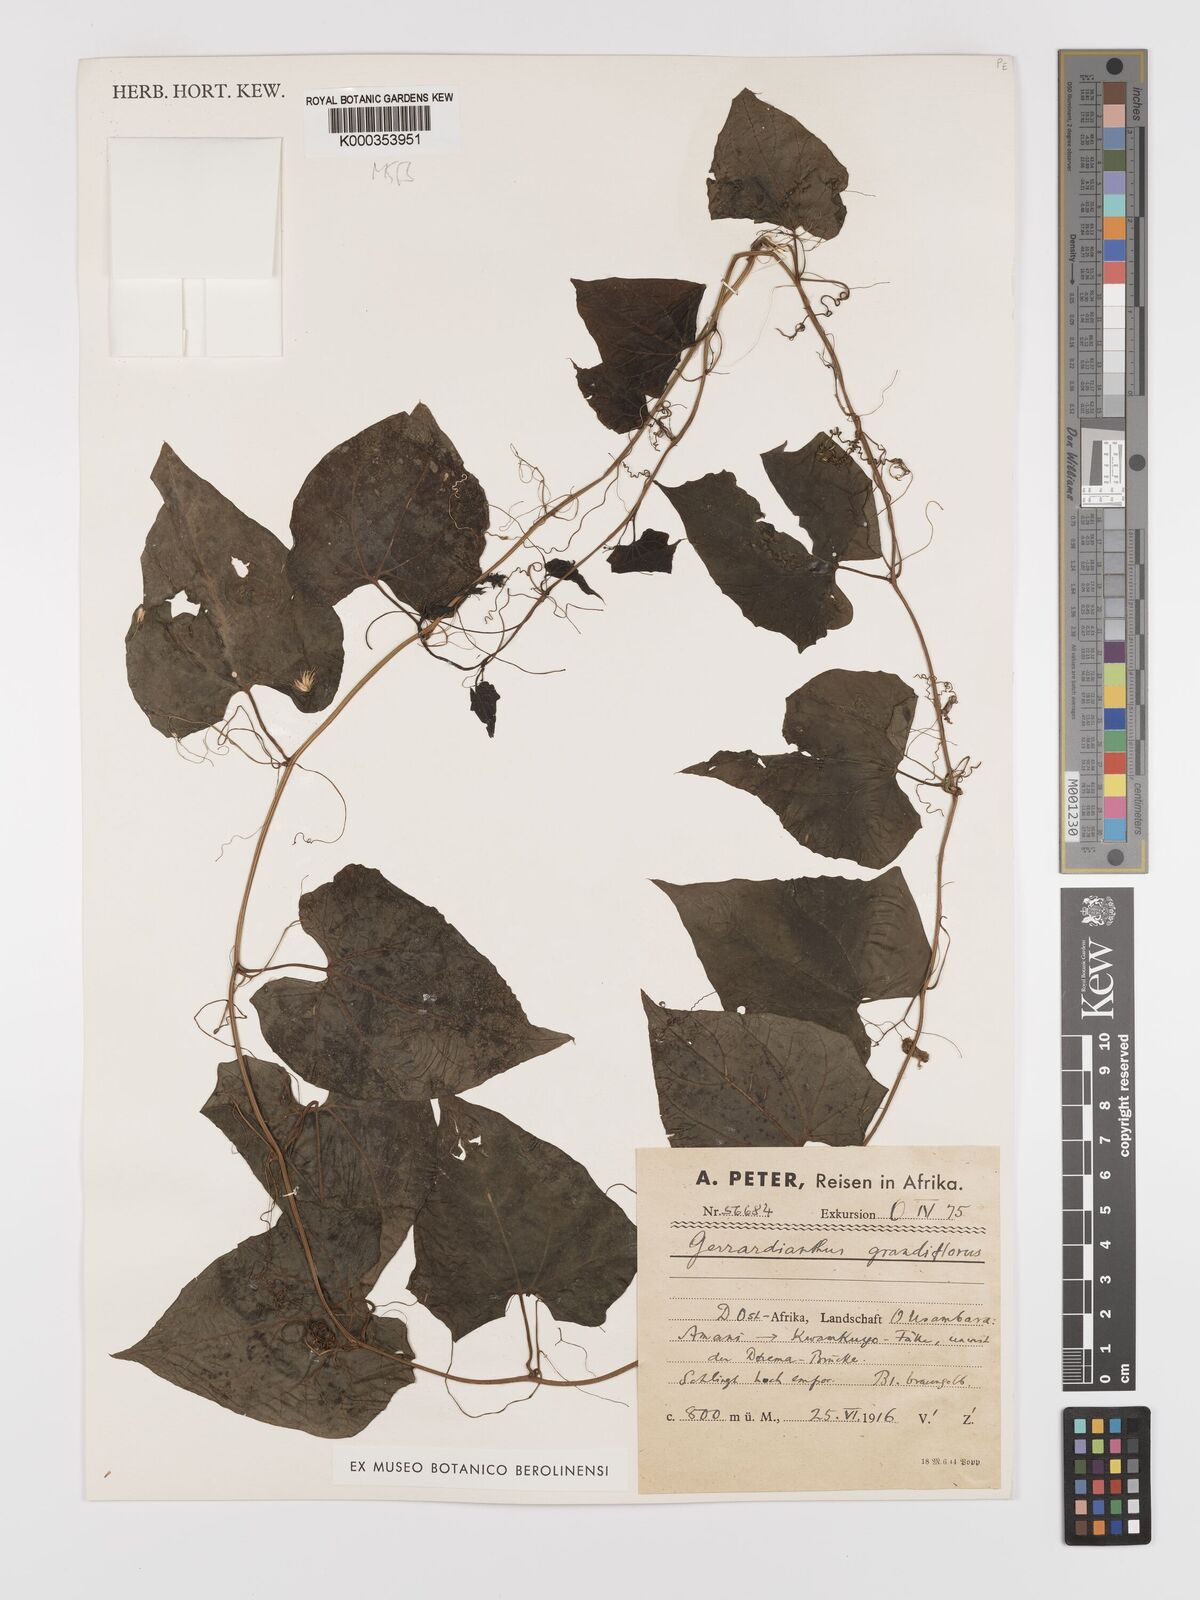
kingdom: Plantae
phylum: Tracheophyta
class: Magnoliopsida
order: Cucurbitales
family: Cucurbitaceae
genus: Gerrardanthus
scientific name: Gerrardanthus
